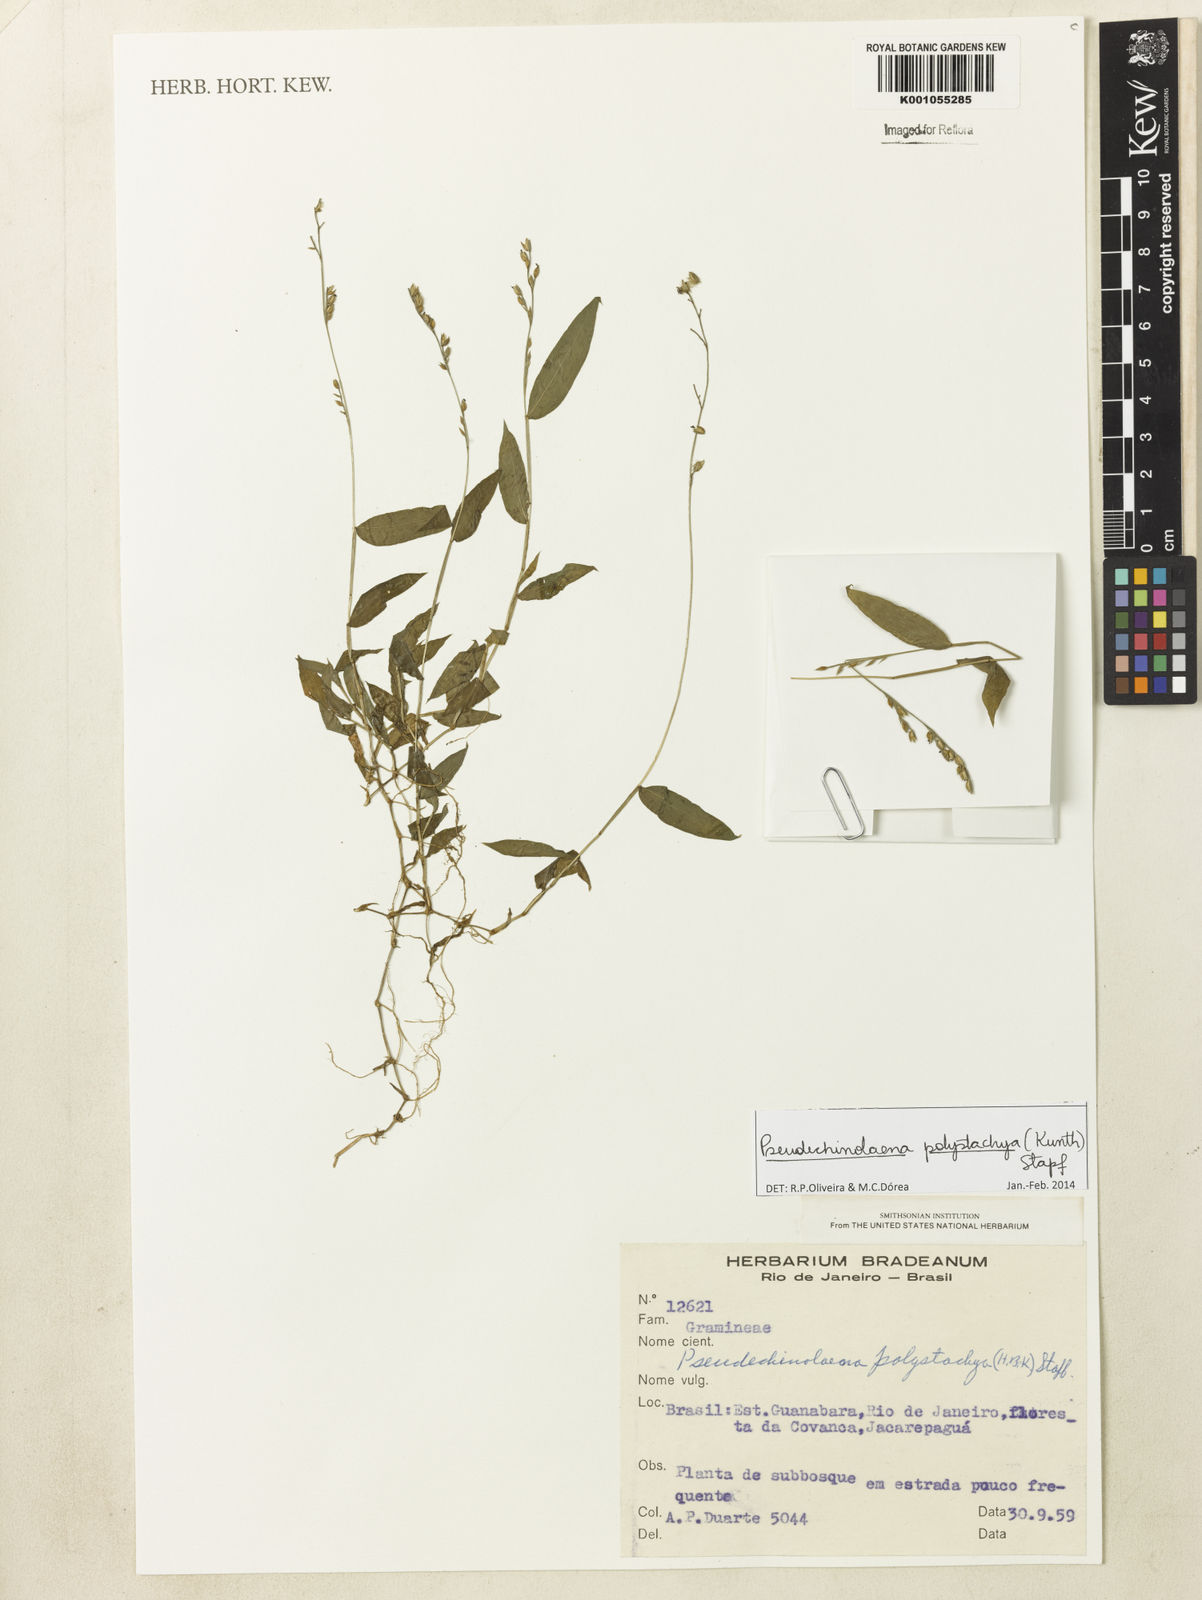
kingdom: Plantae
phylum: Tracheophyta
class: Liliopsida
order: Poales
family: Poaceae
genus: Pseudechinolaena
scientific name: Pseudechinolaena polystachya
